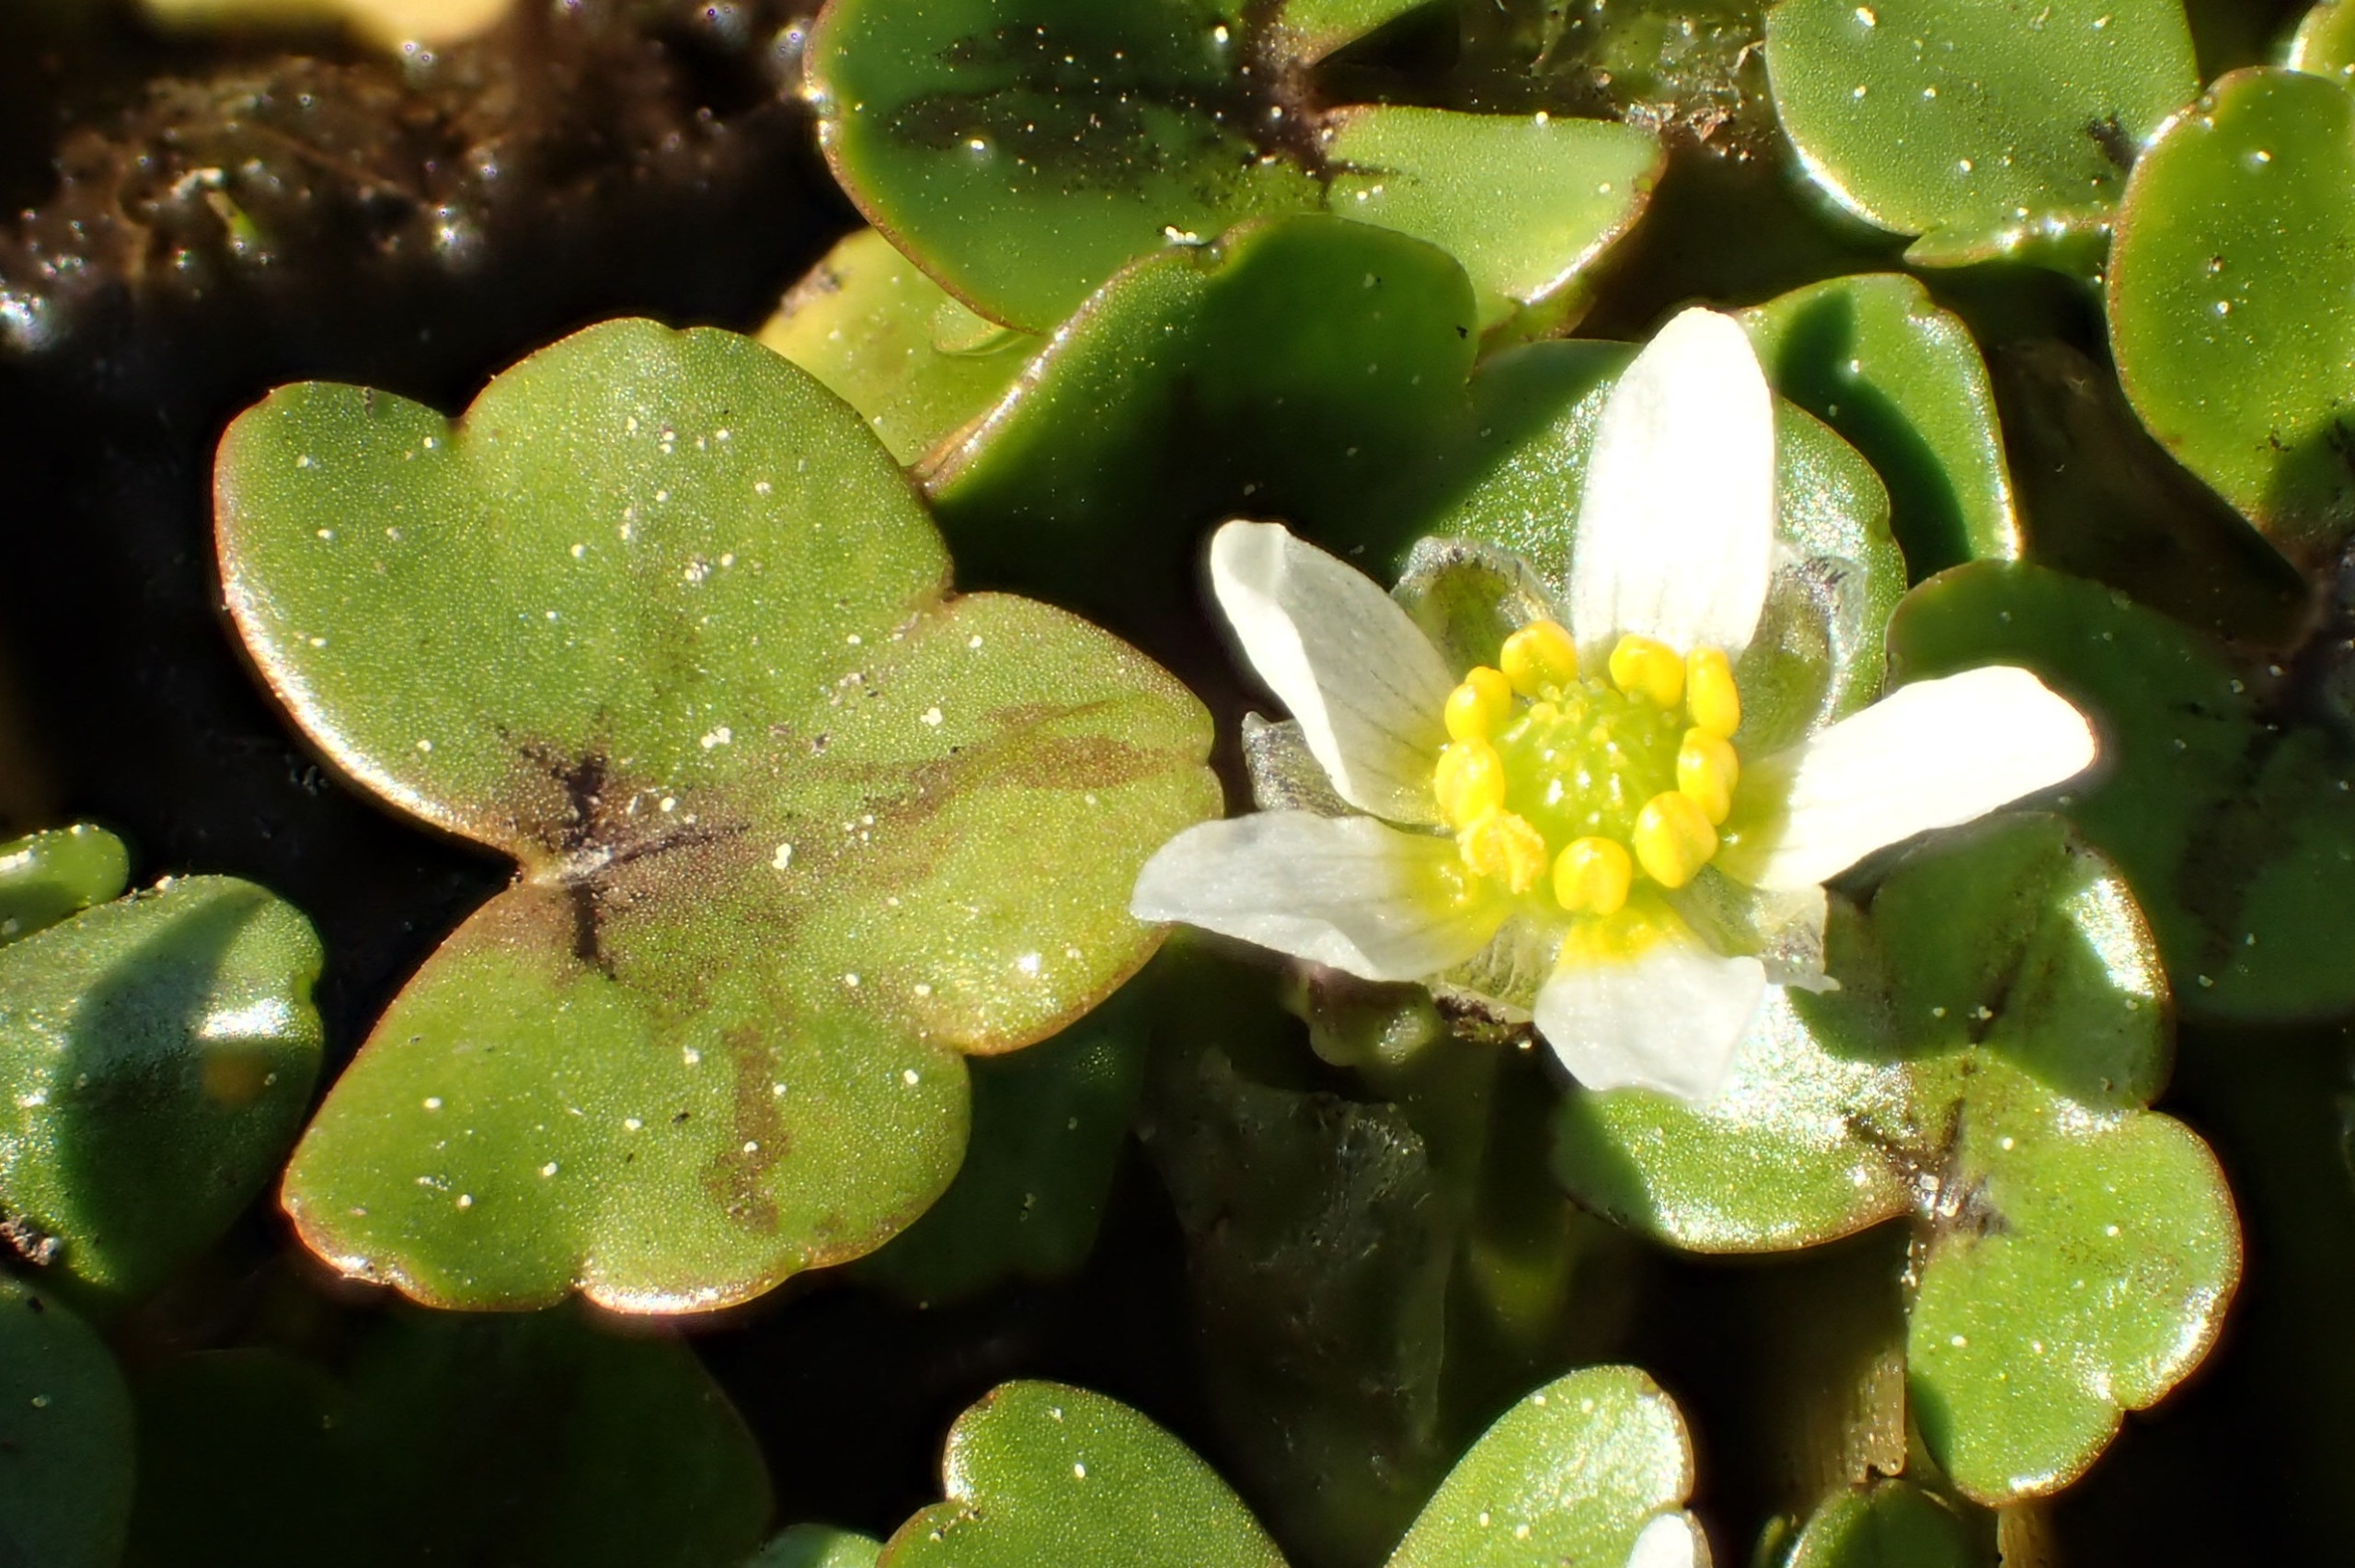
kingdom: Plantae
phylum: Tracheophyta
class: Magnoliopsida
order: Ranunculales
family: Ranunculaceae
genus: Ranunculus
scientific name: Ranunculus hederaceus
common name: Vedbend-vandranunkel
